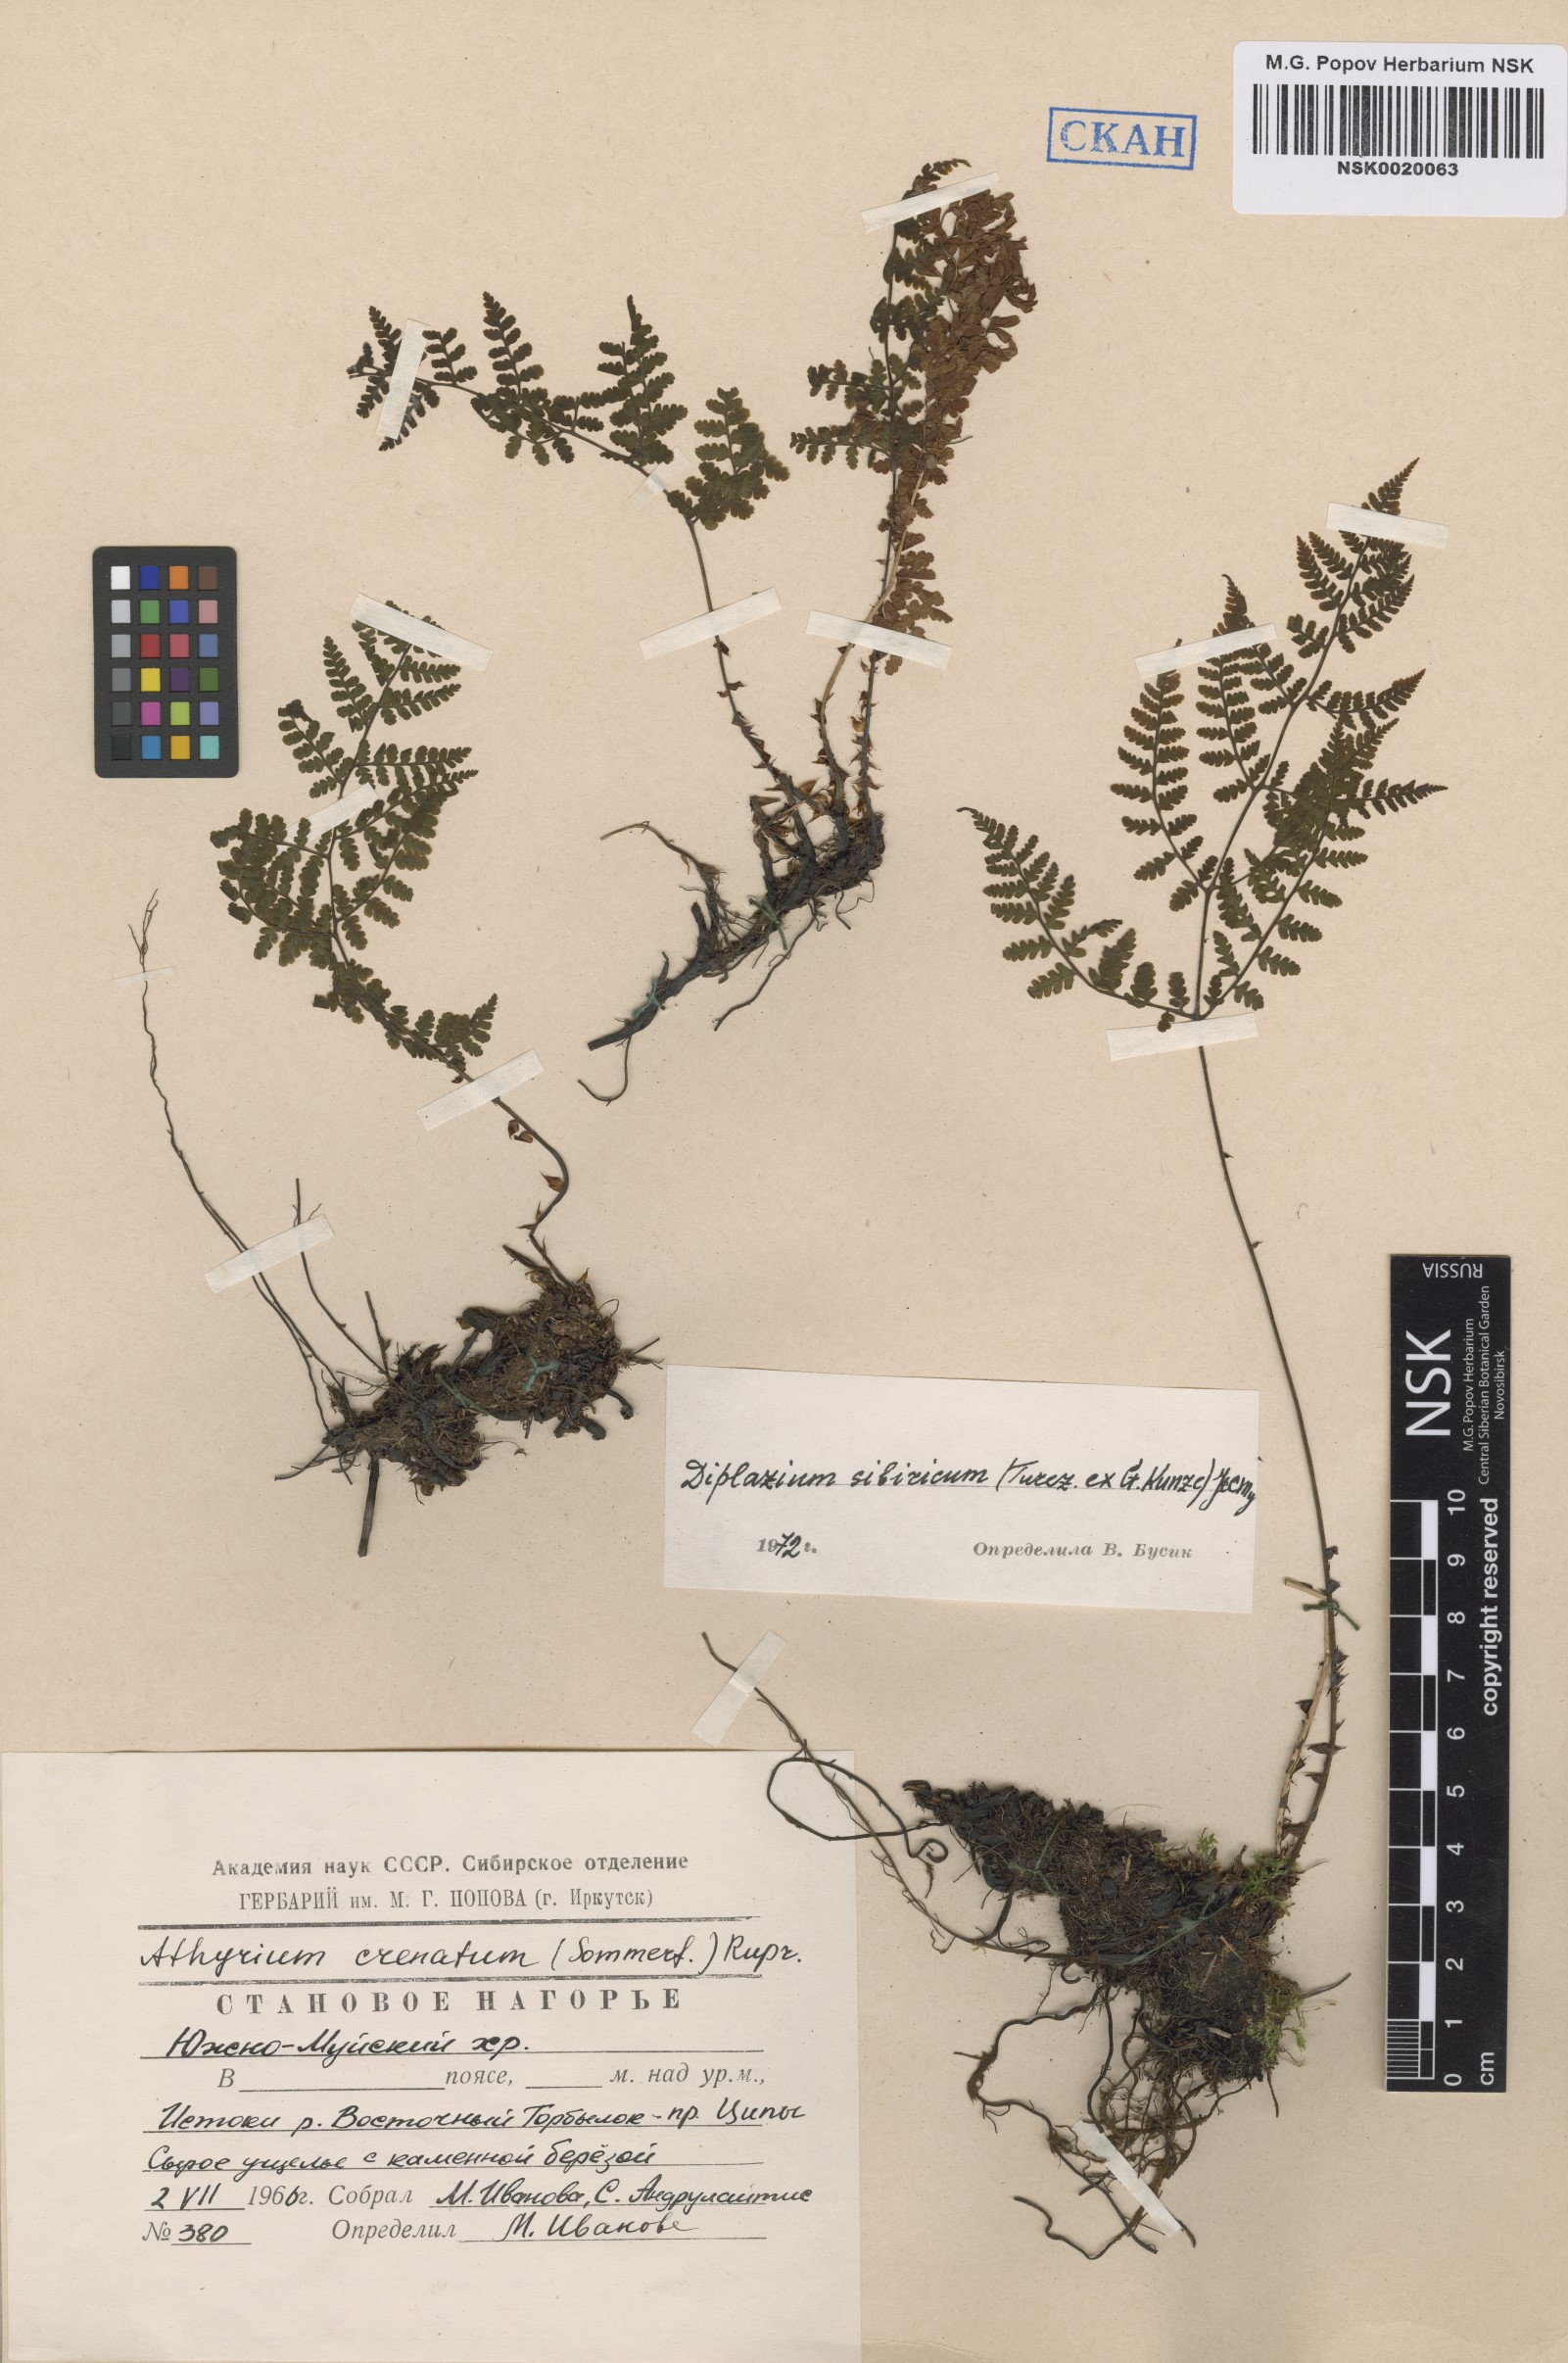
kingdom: Plantae
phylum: Tracheophyta
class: Polypodiopsida
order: Polypodiales
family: Athyriaceae
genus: Diplazium
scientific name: Diplazium sibiricum
